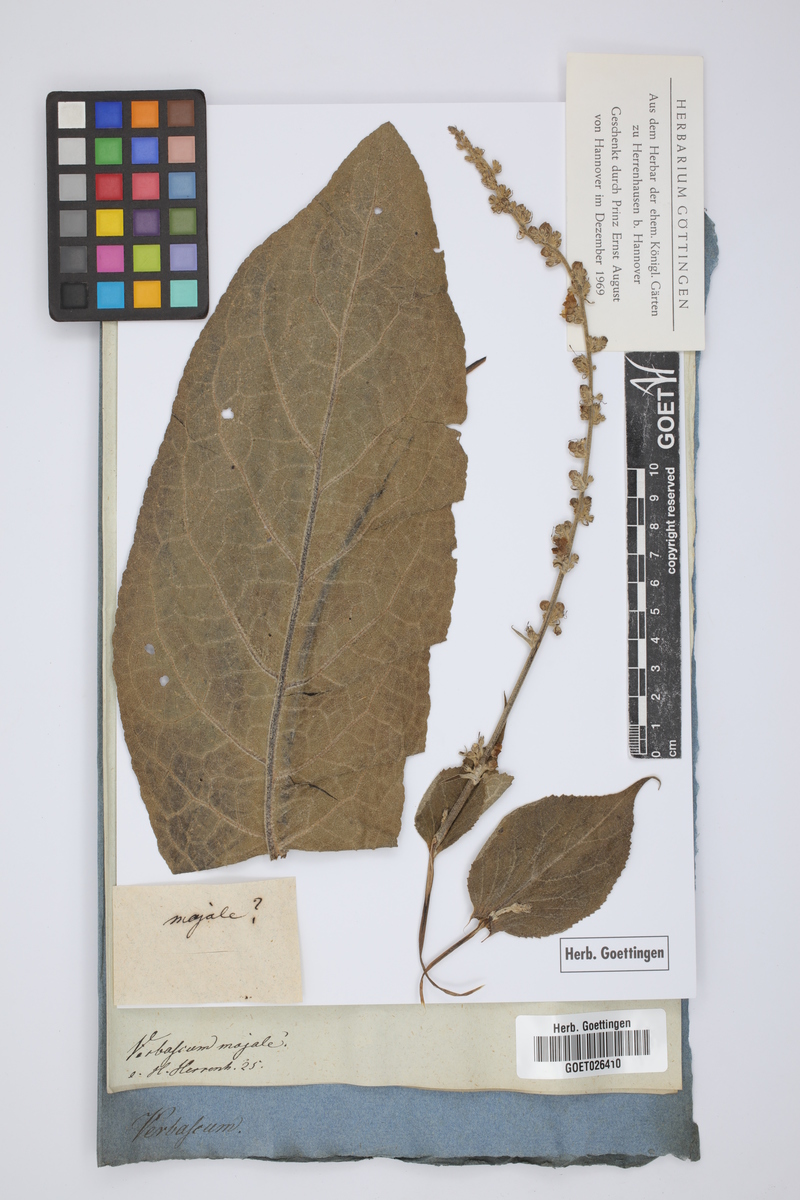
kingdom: Plantae
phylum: Tracheophyta
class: Magnoliopsida
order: Lamiales
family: Scrophulariaceae
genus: Verbascum
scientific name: Verbascum boerhavii
